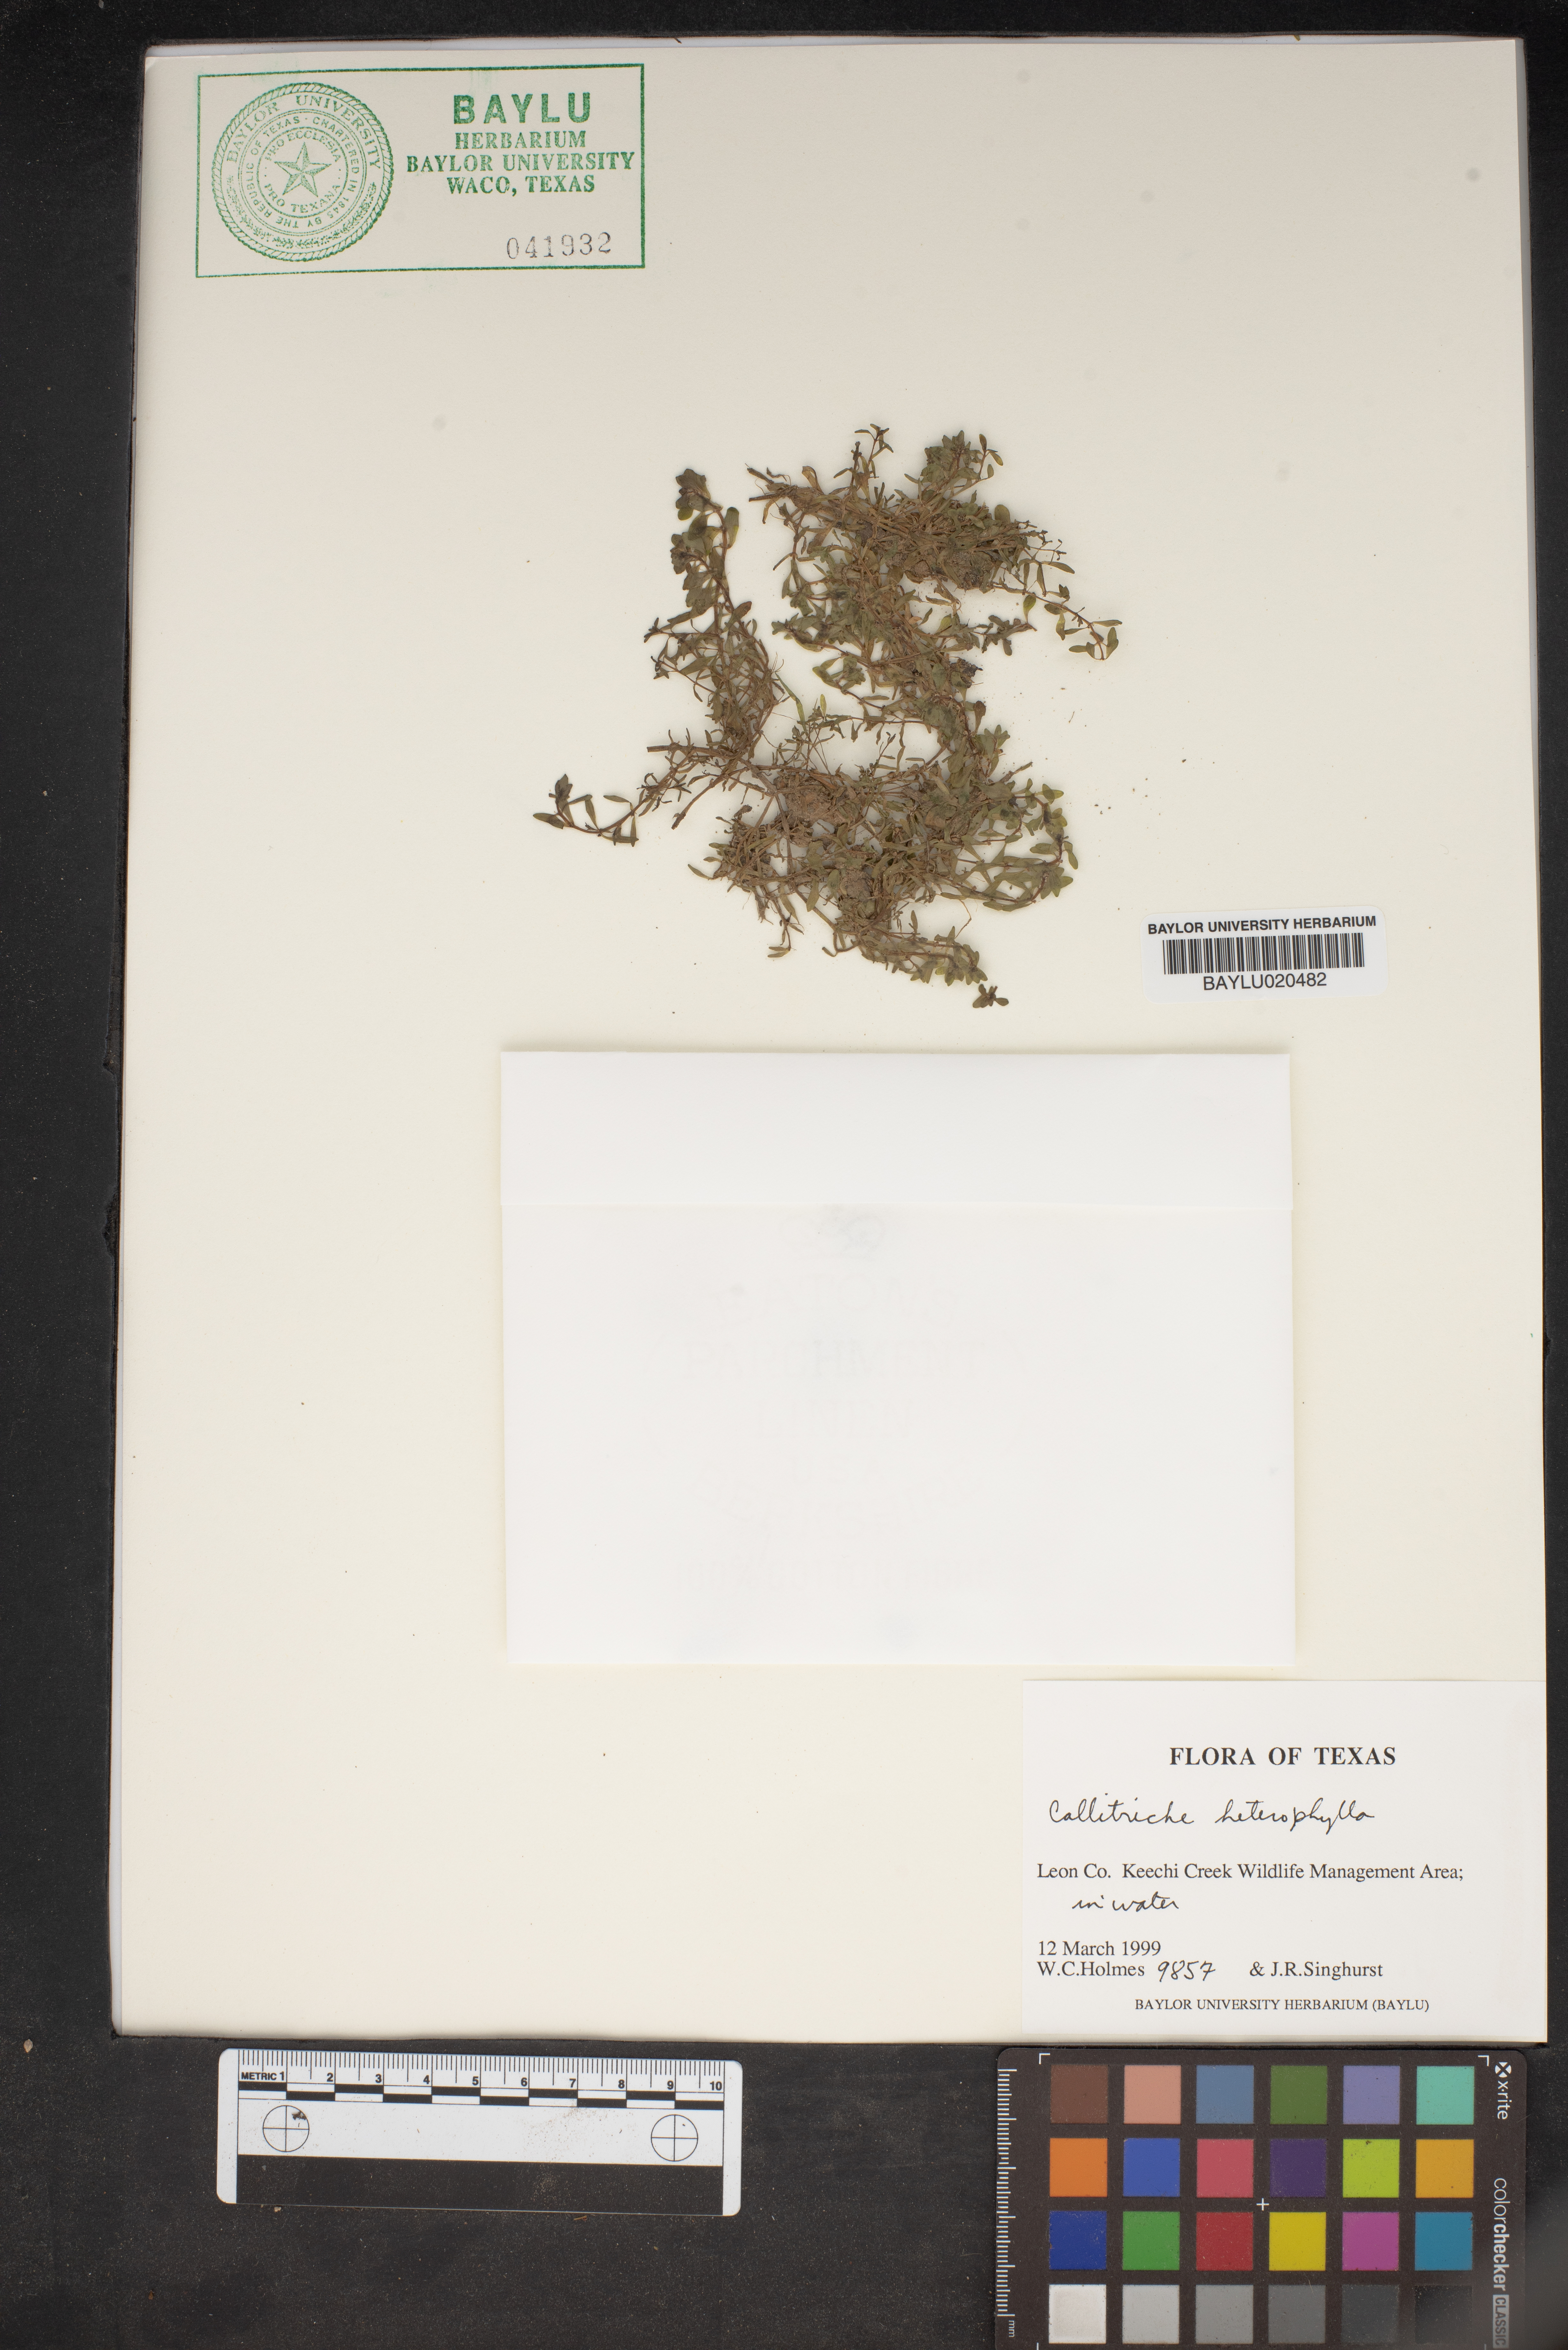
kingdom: Plantae
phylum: Tracheophyta
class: Magnoliopsida
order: Lamiales
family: Plantaginaceae
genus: Callitriche
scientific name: Callitriche heterophylla
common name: Two-headed water-starwort
